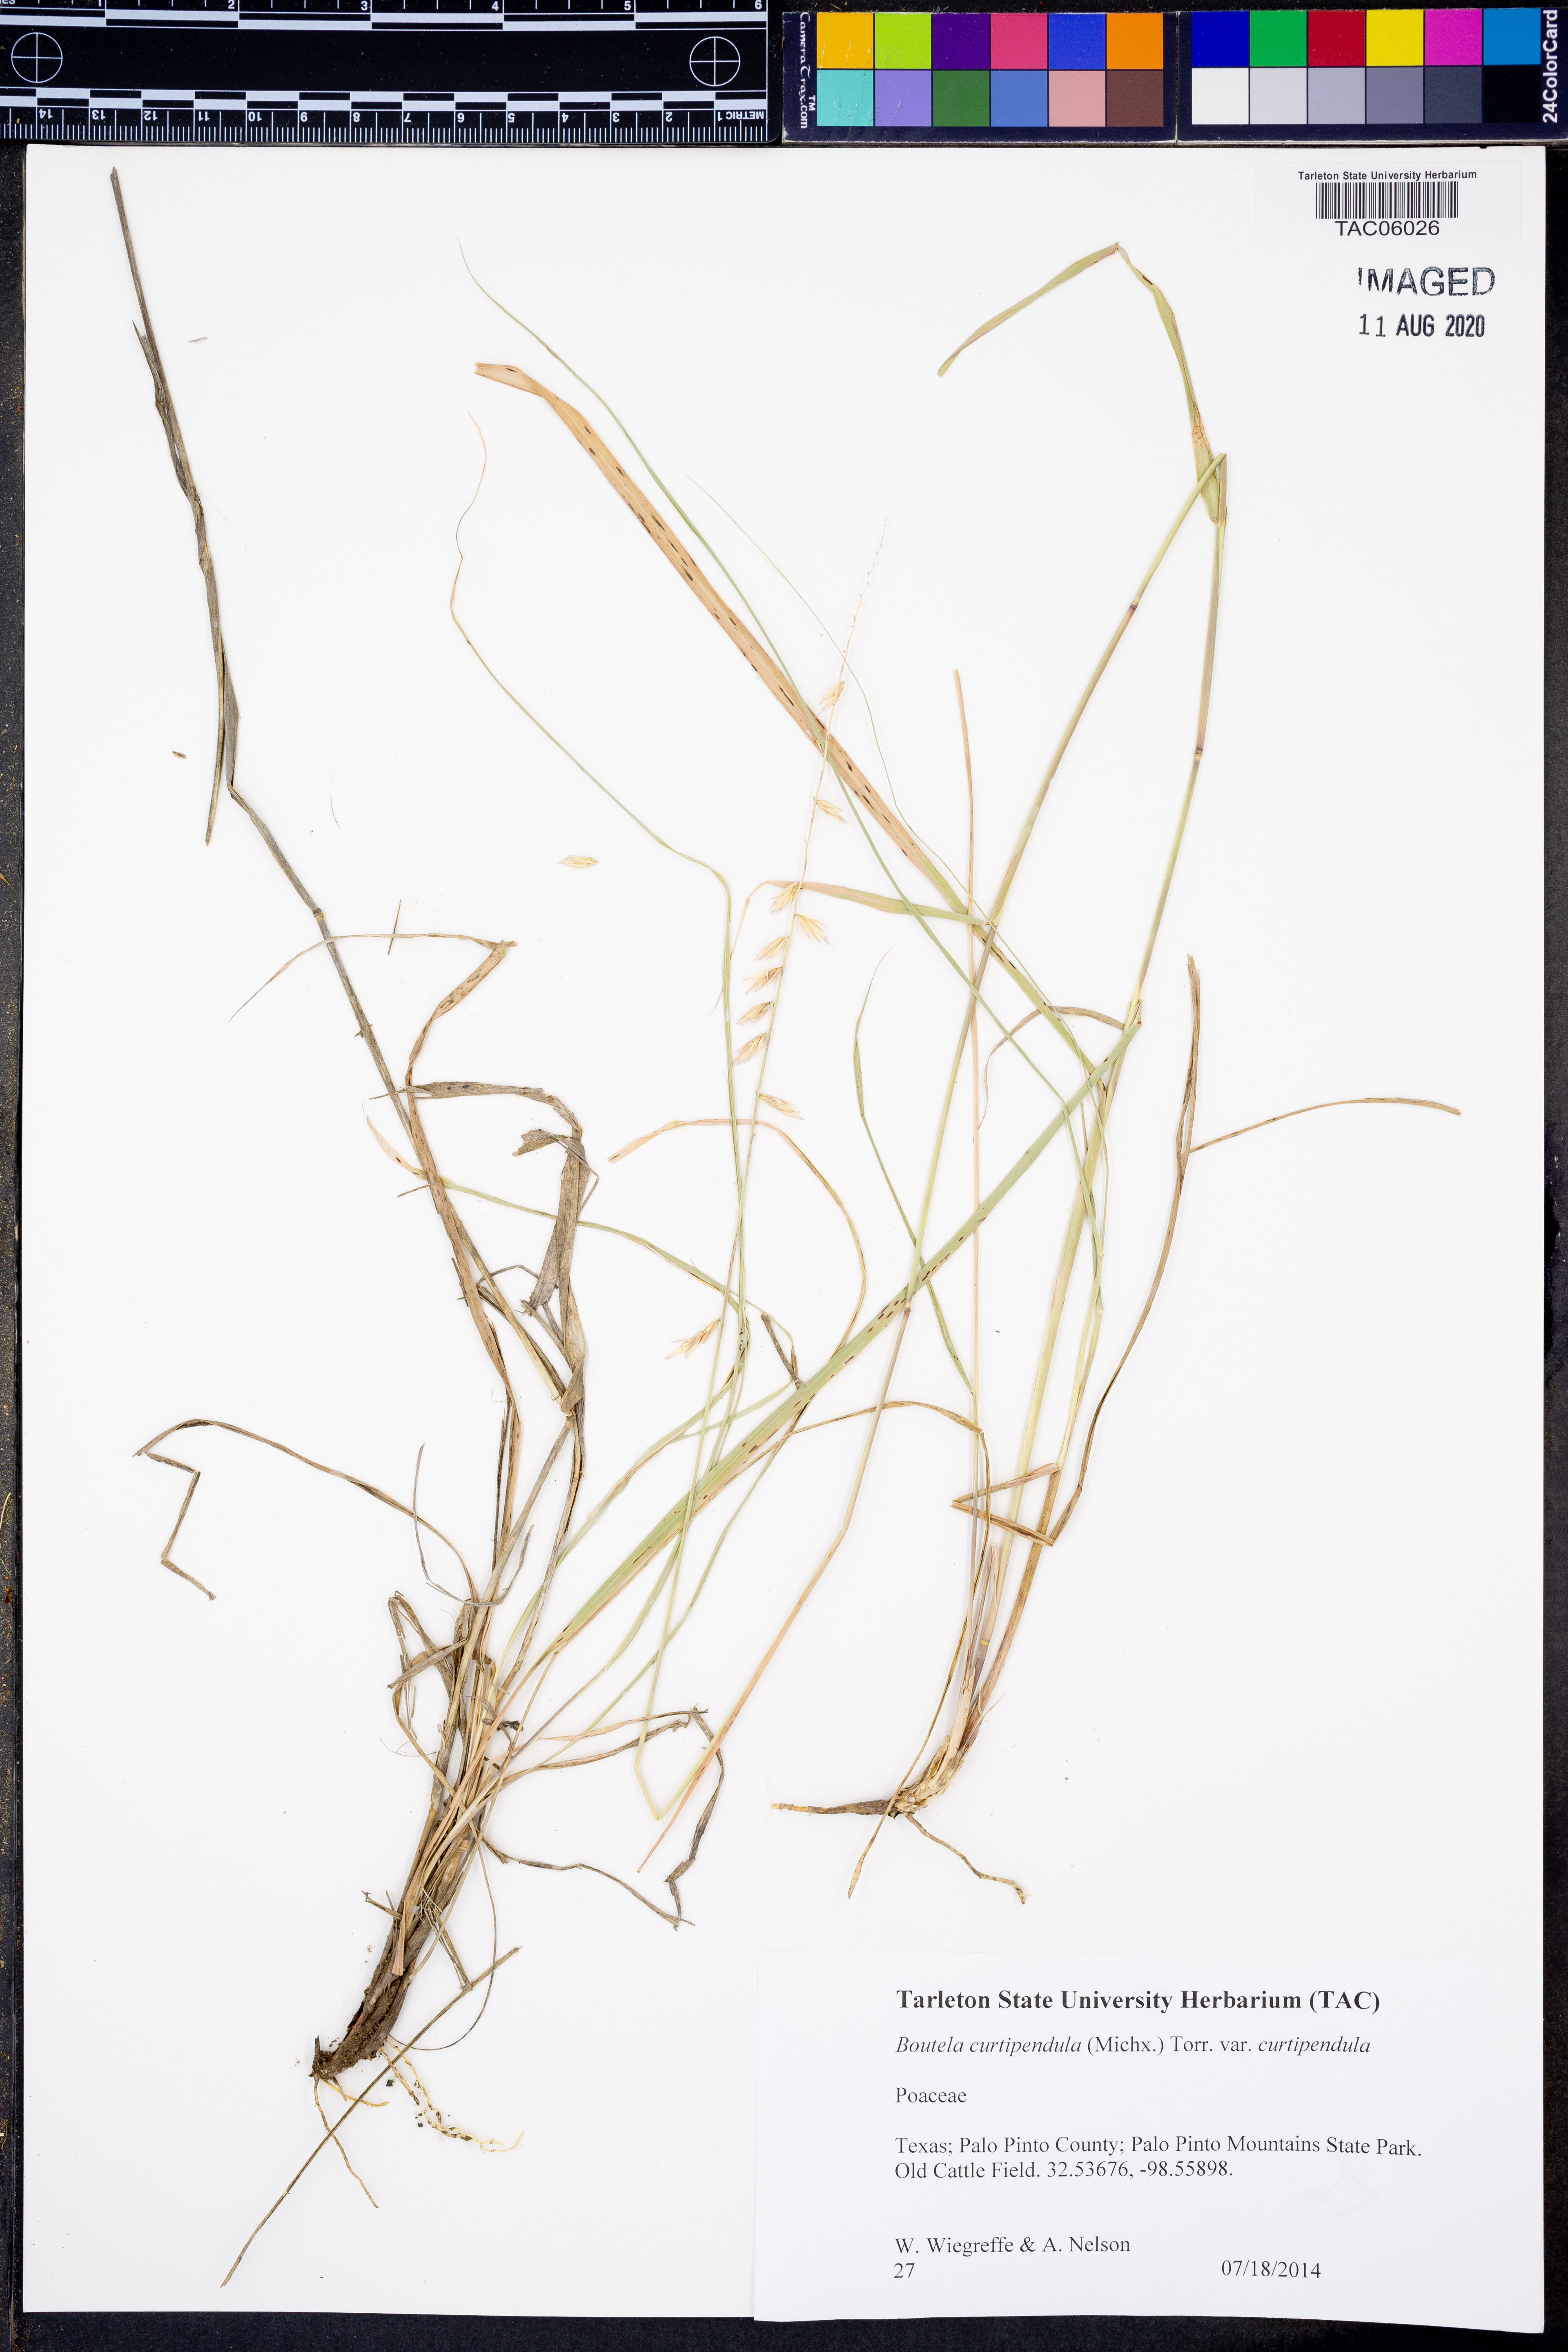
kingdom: Plantae
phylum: Tracheophyta
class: Liliopsida
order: Poales
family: Poaceae
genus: Bouteloua
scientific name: Bouteloua curtipendula
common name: Side-oats grama
